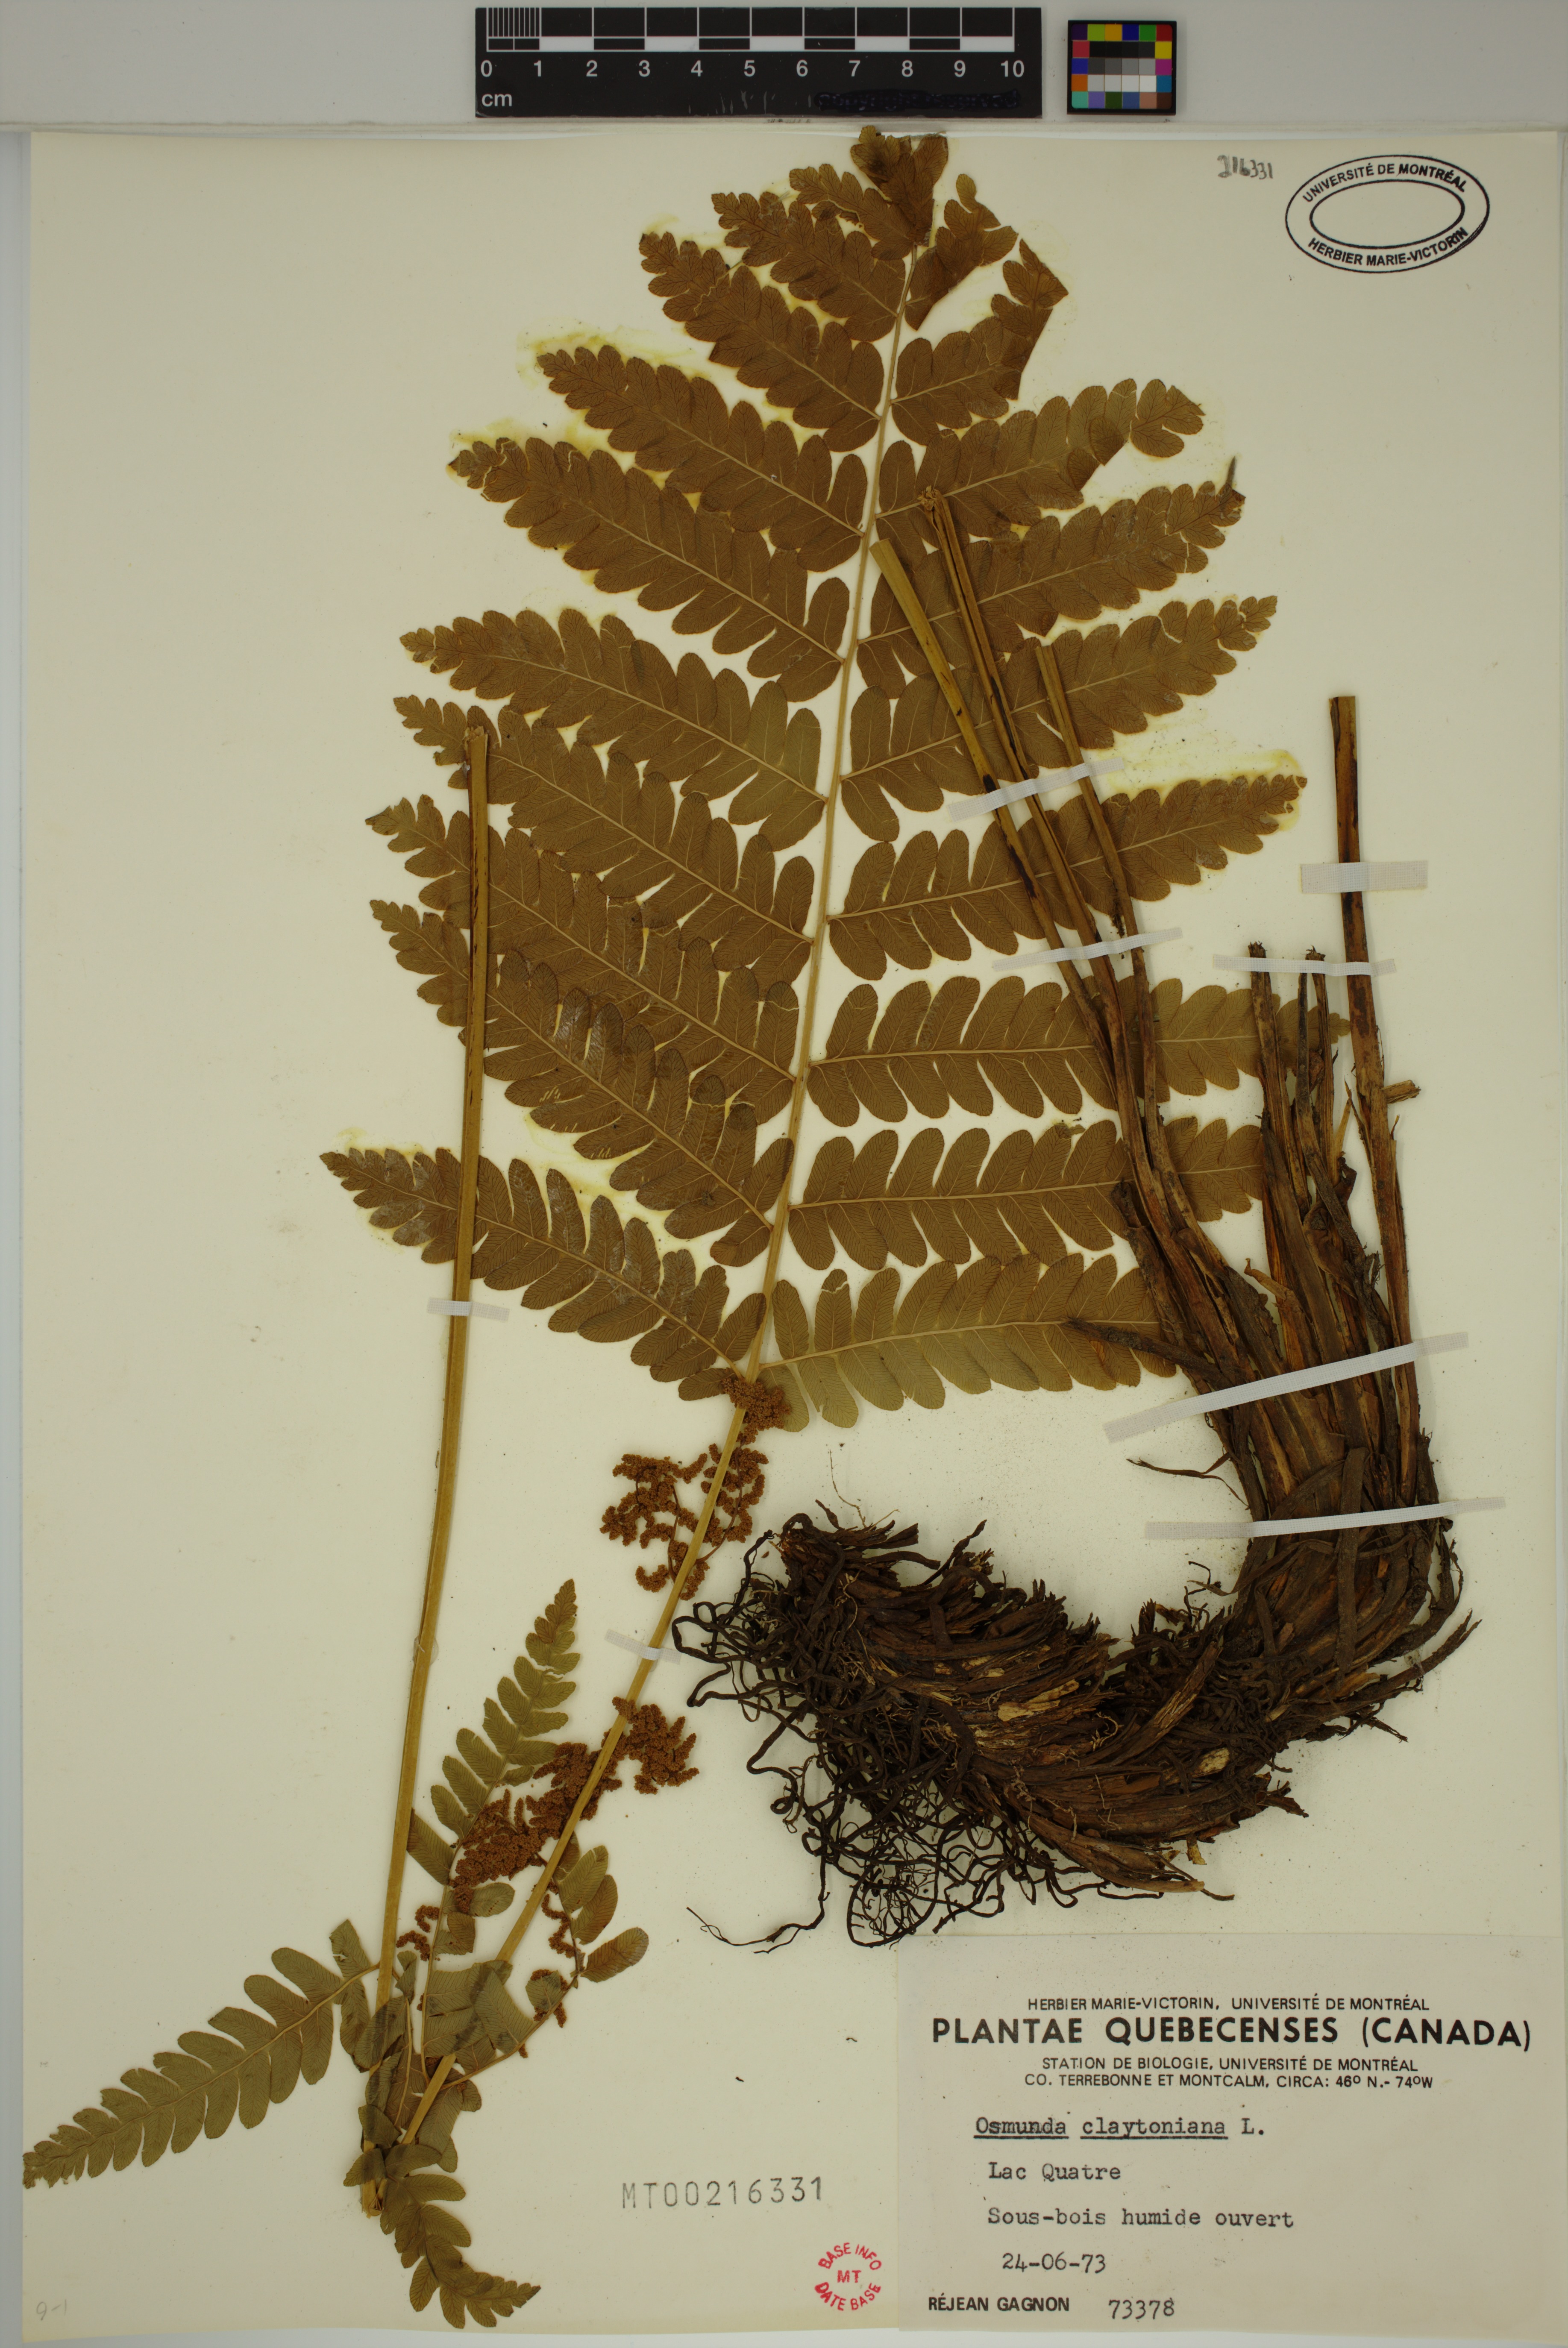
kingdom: Plantae
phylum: Tracheophyta
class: Polypodiopsida
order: Osmundales
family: Osmundaceae
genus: Claytosmunda
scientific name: Claytosmunda claytoniana
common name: Clayton's fern
